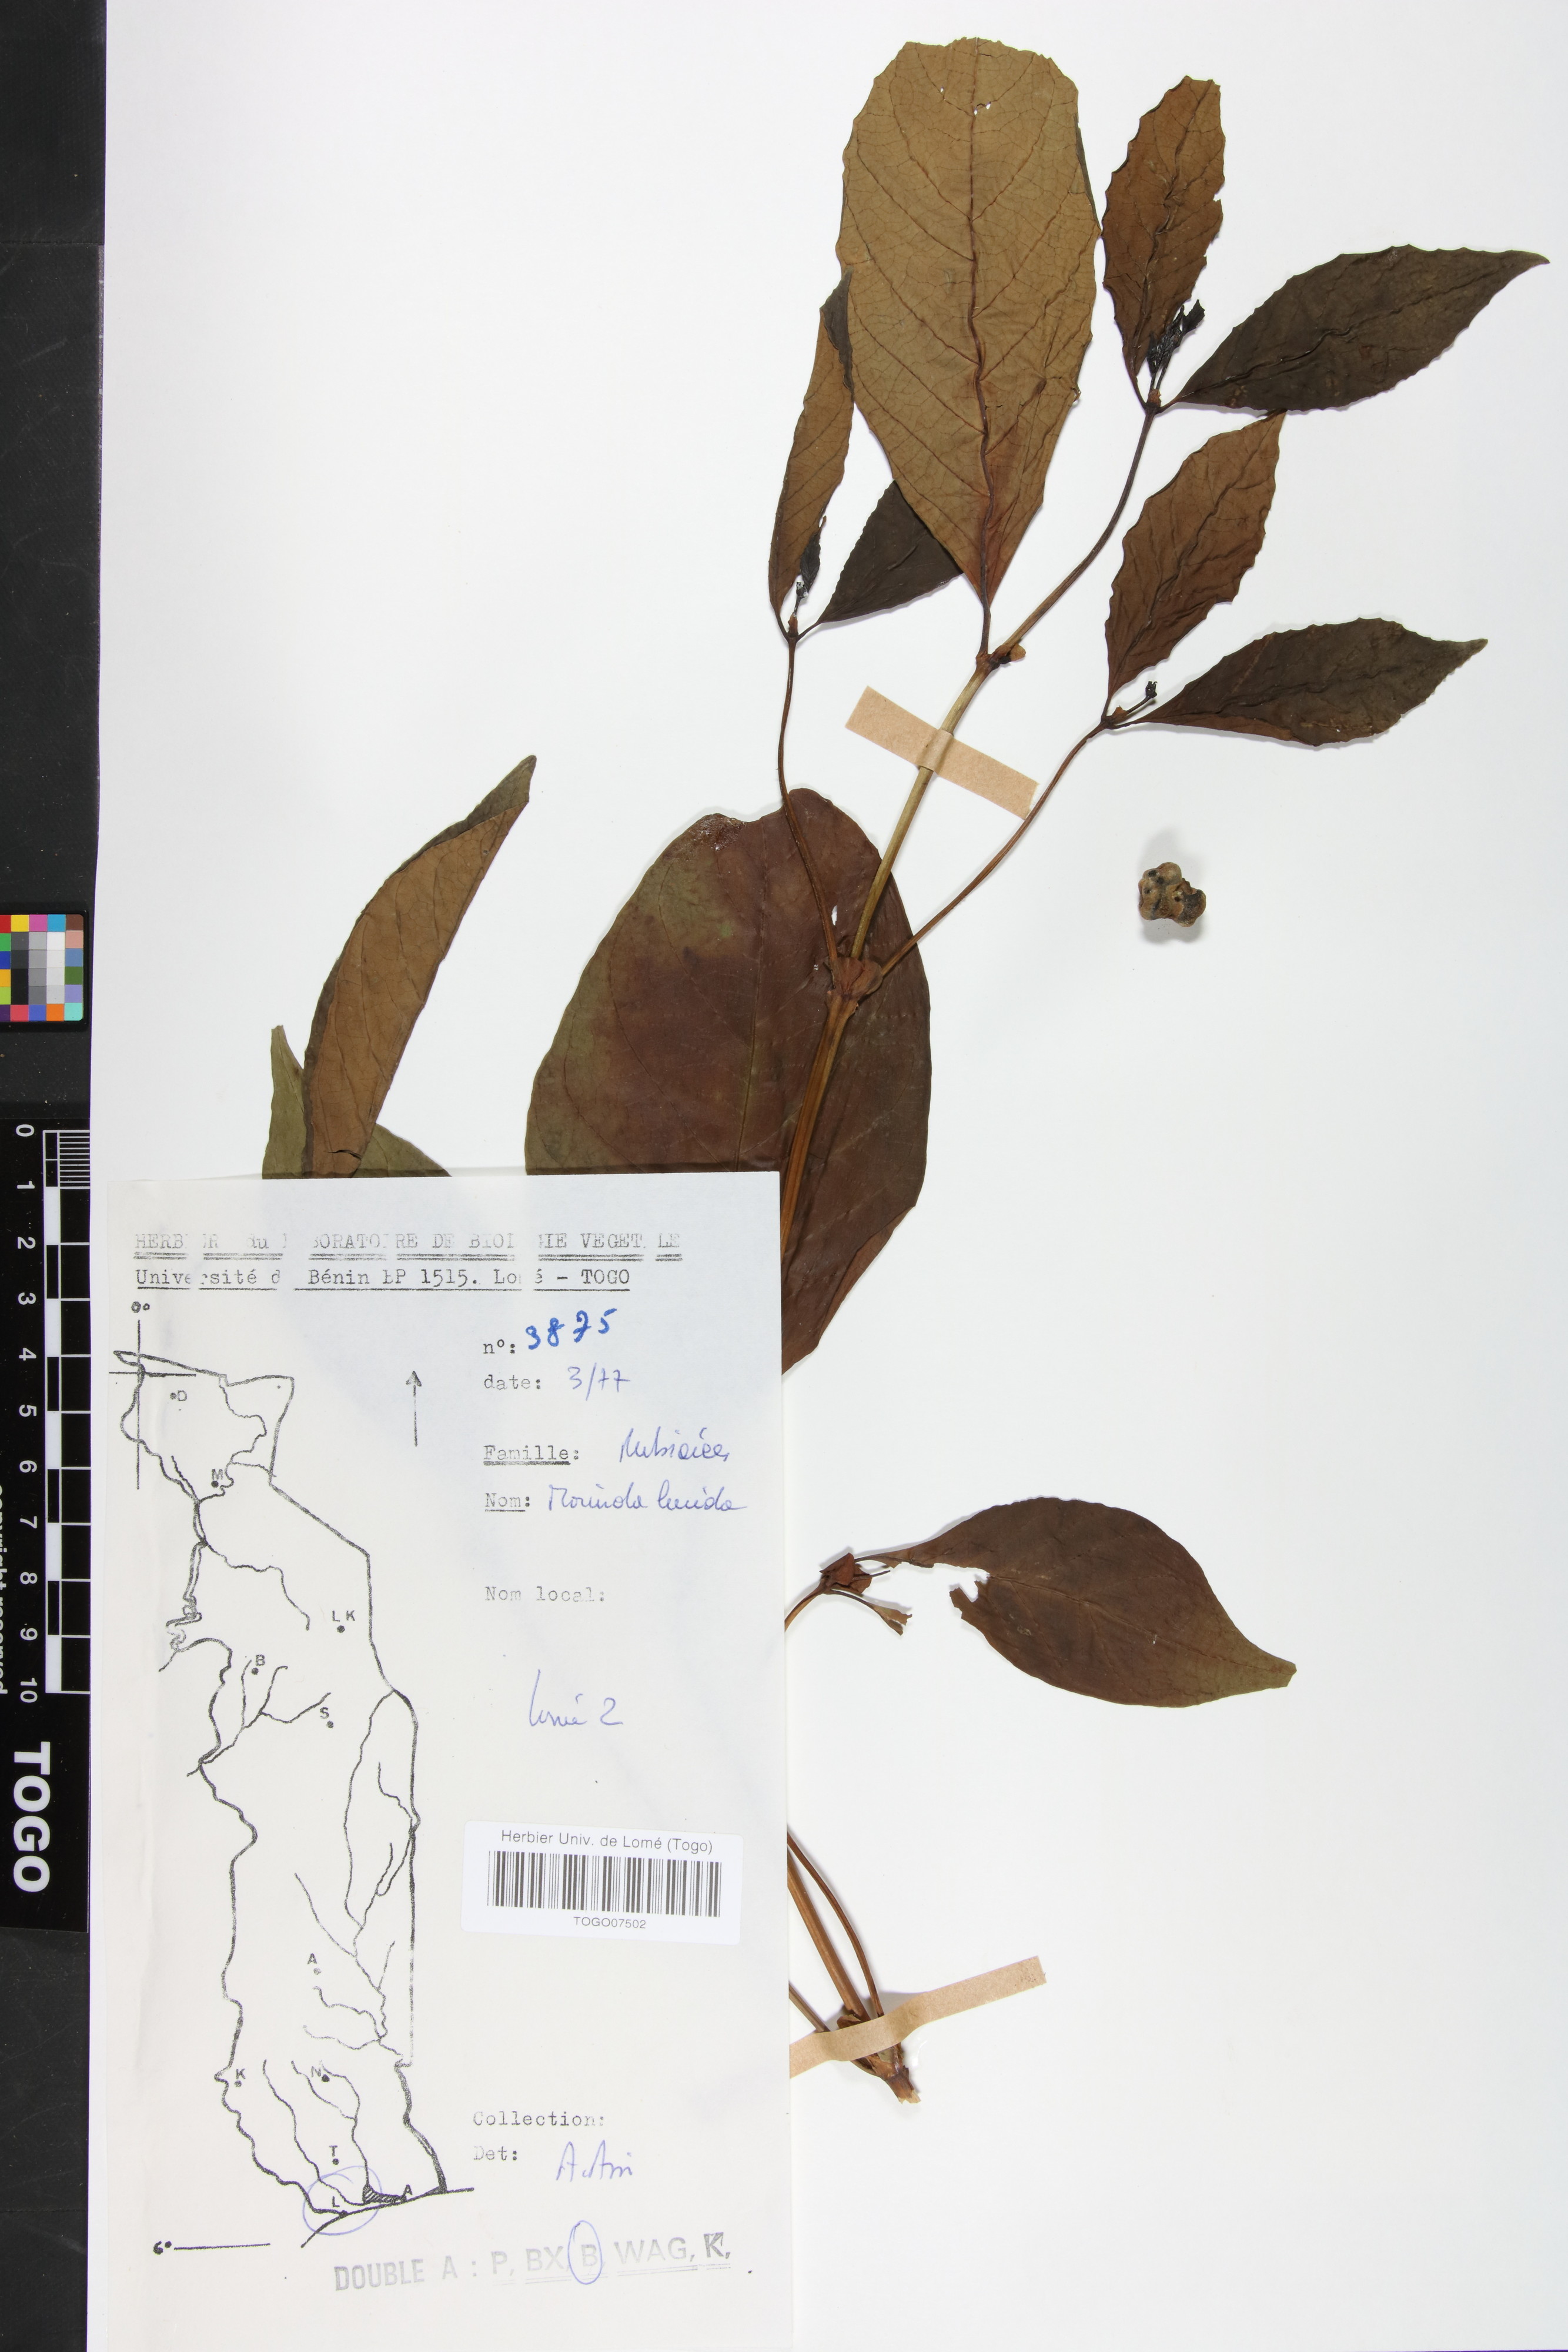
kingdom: Plantae
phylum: Tracheophyta
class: Magnoliopsida
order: Gentianales
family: Rubiaceae
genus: Morinda
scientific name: Morinda lucida
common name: Brimstonetree
